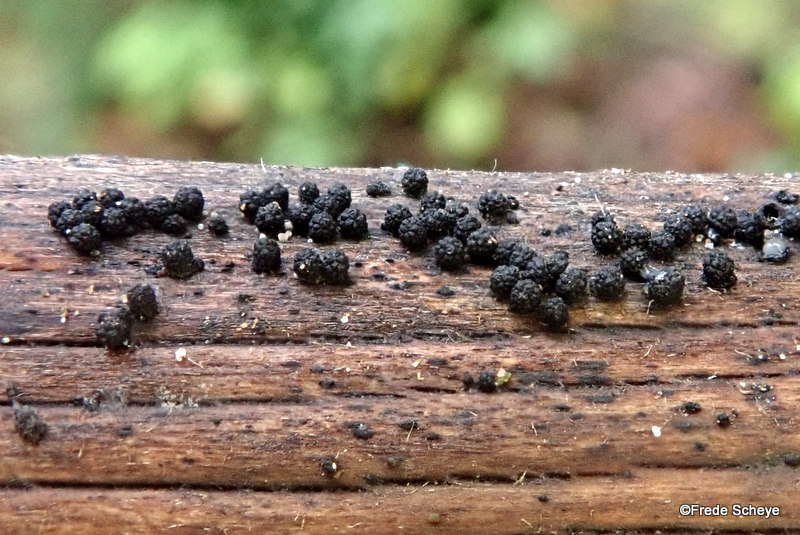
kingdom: Fungi
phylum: Ascomycota
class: Sordariomycetes
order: Coronophorales
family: Bertiaceae
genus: Bertia
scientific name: Bertia moriformis
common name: almindelig morbærkerne
